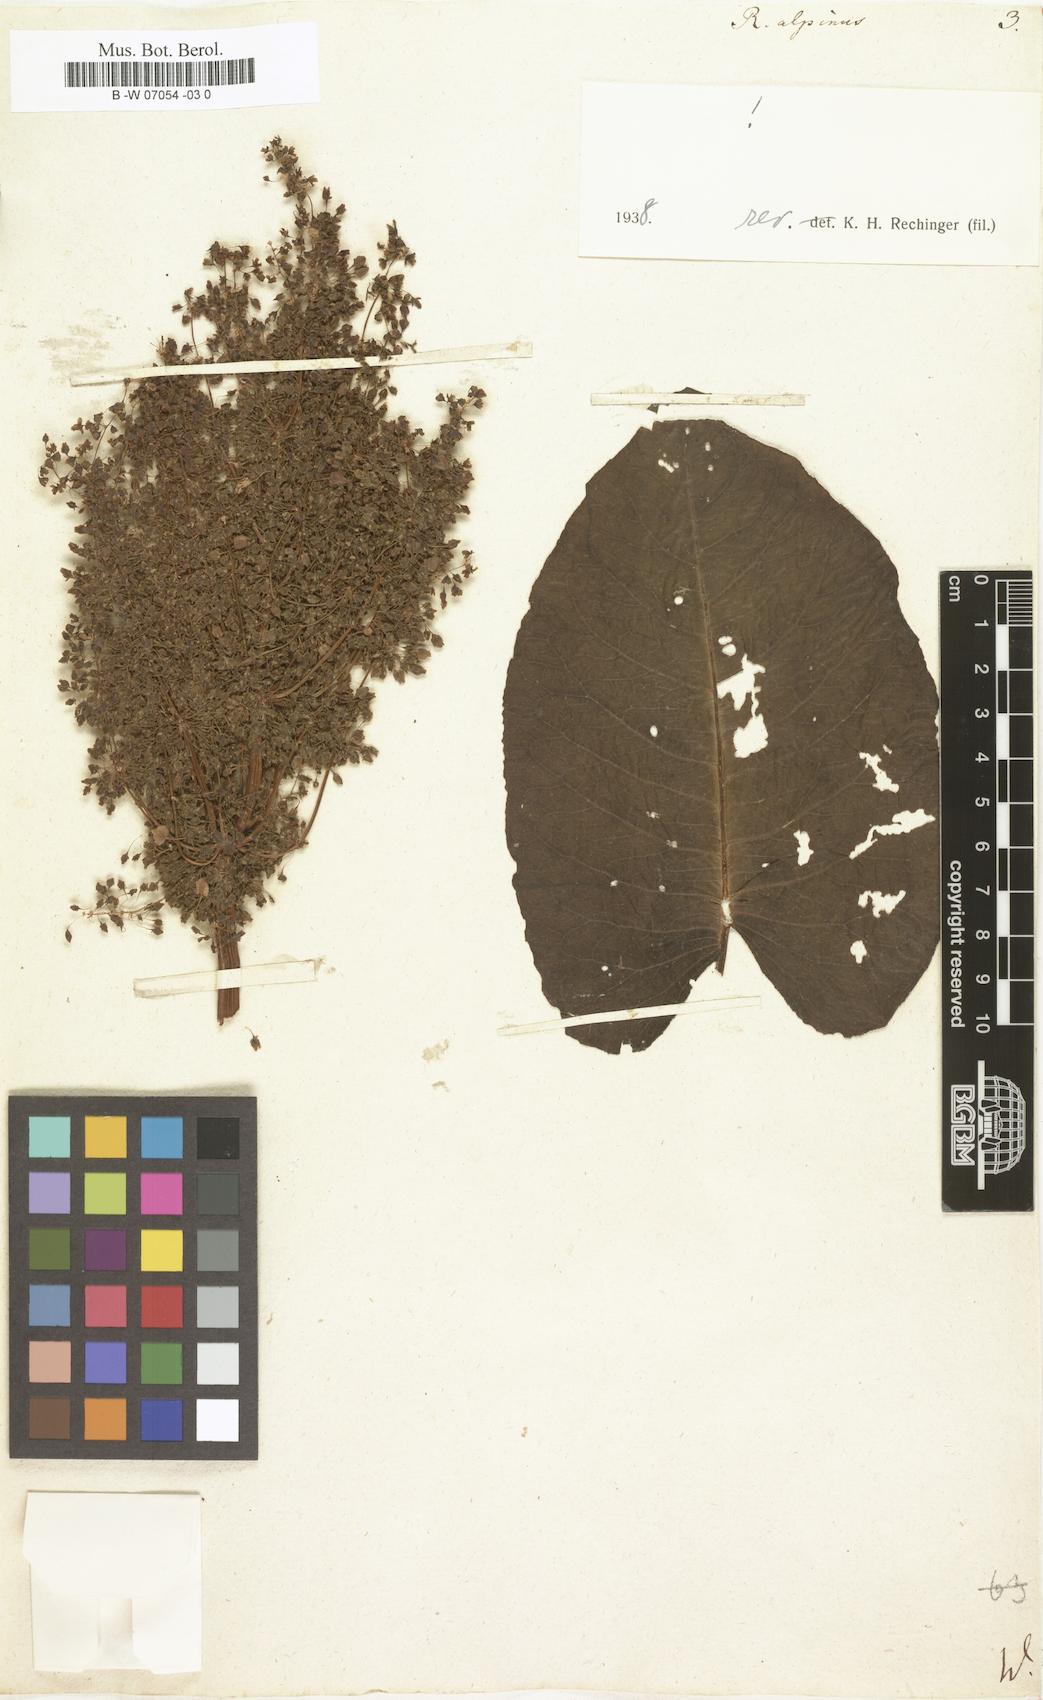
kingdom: Plantae
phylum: Tracheophyta
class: Magnoliopsida
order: Caryophyllales
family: Polygonaceae
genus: Rumex
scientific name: Rumex alpinus
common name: Alpine dock
